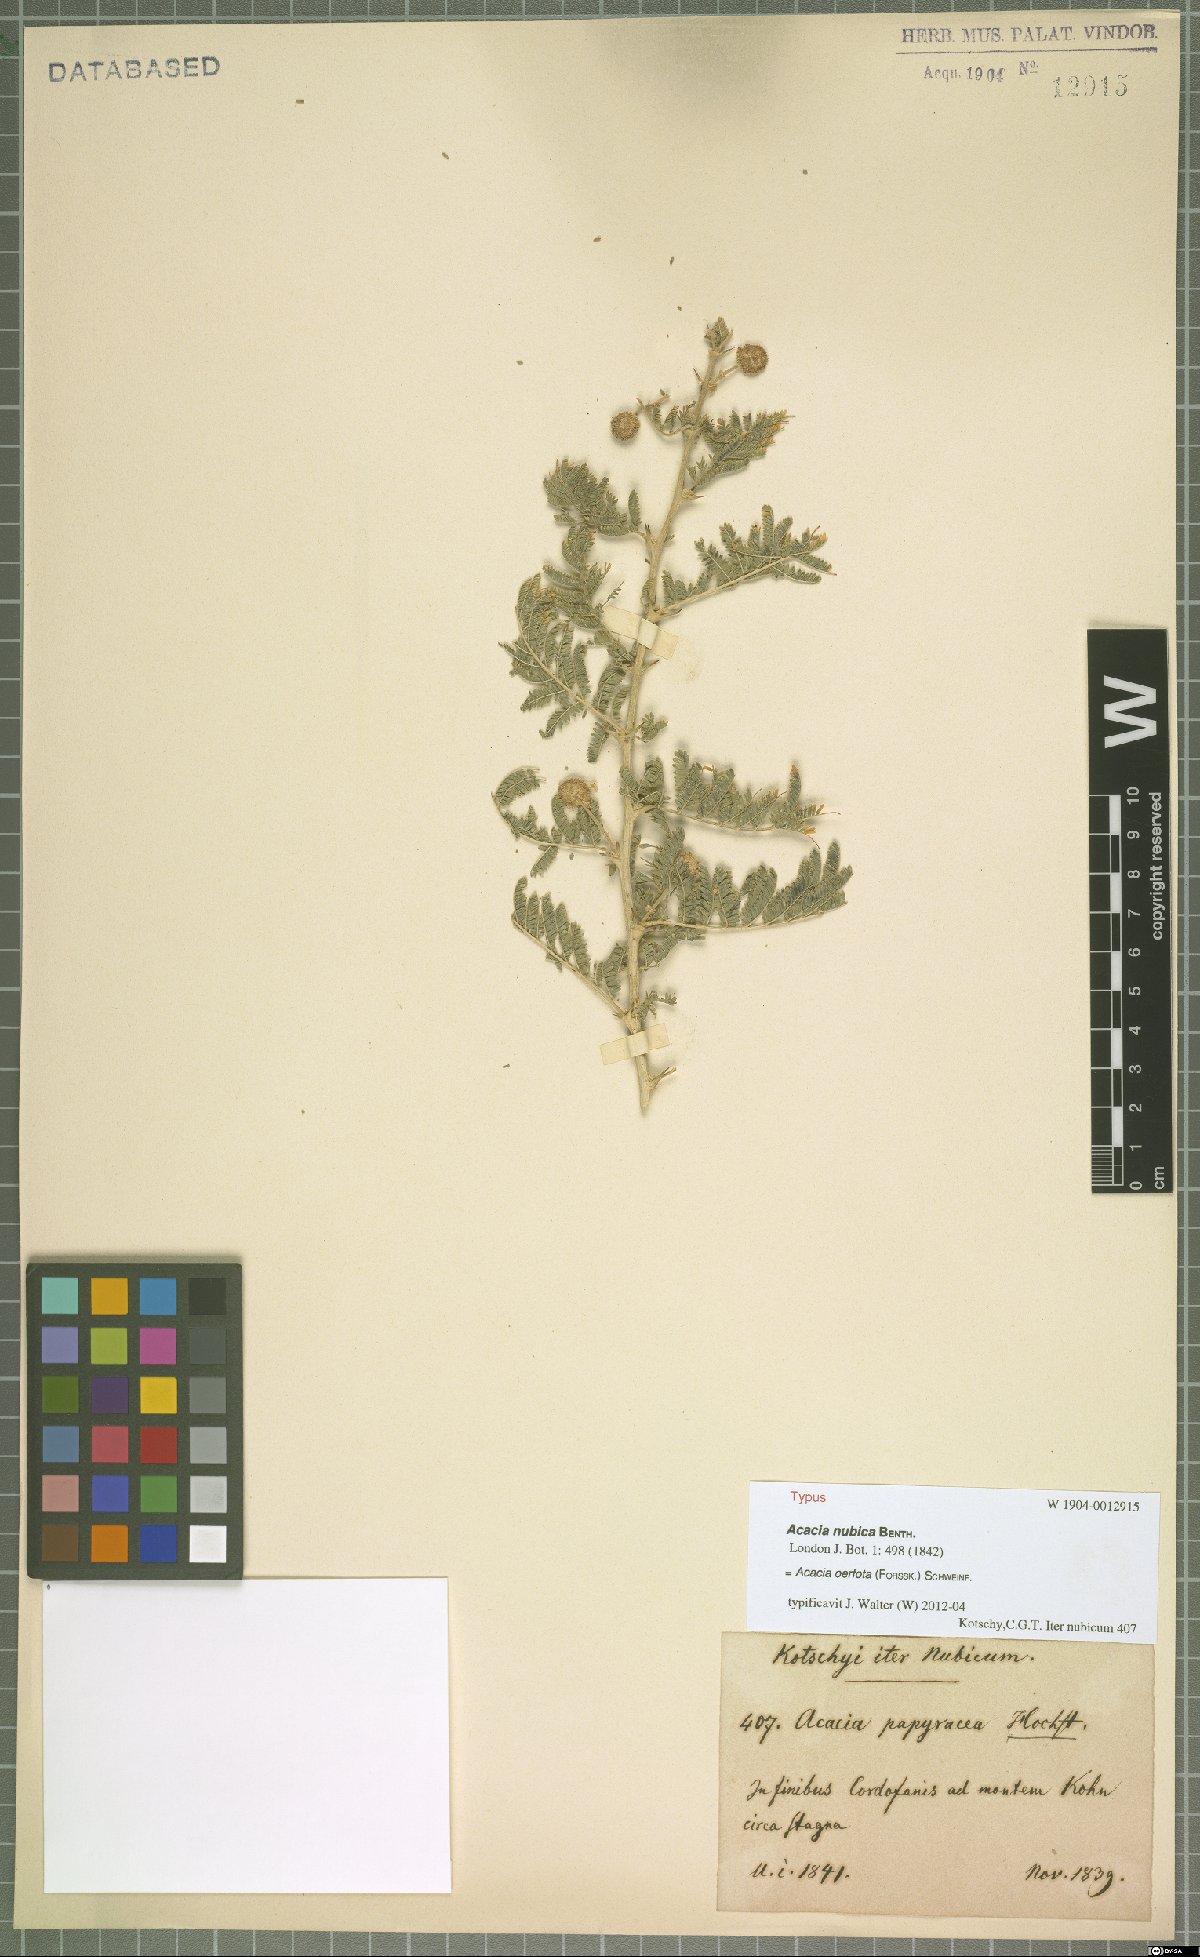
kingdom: Plantae
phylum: Tracheophyta
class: Magnoliopsida
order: Fabales
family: Fabaceae
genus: Vachellia
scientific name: Vachellia oerfota
